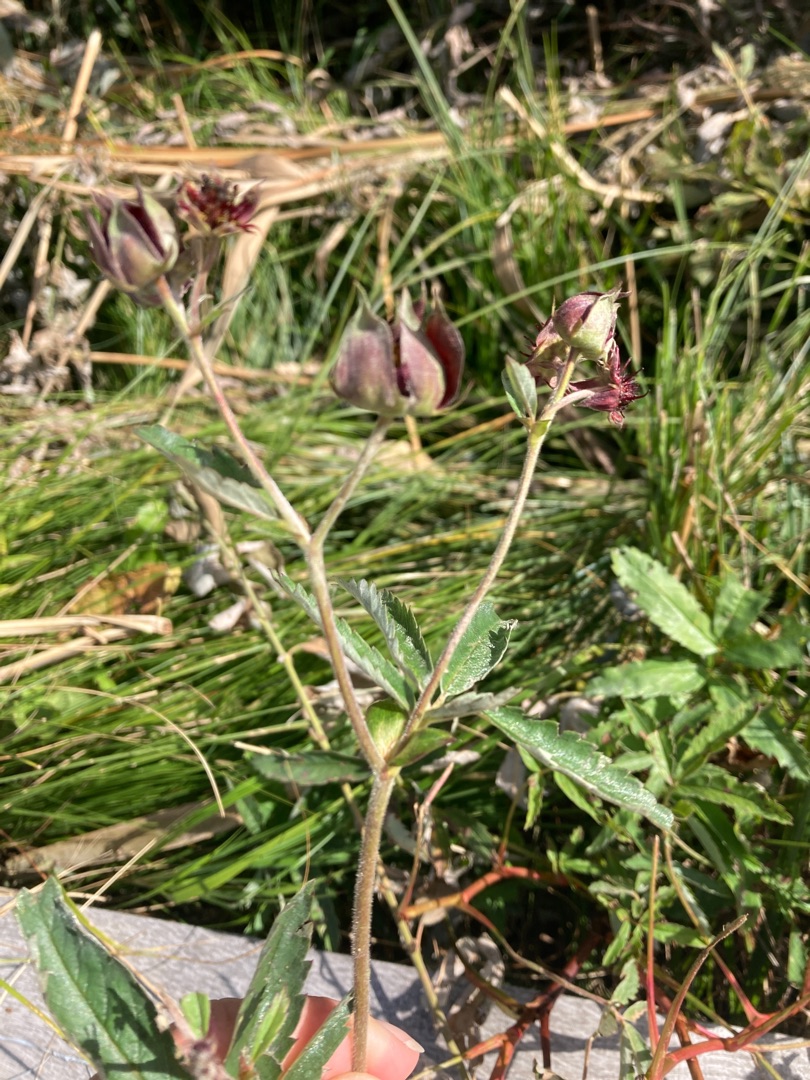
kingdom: Plantae
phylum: Tracheophyta
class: Magnoliopsida
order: Rosales
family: Rosaceae
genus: Comarum
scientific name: Comarum palustre
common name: Kragefod
